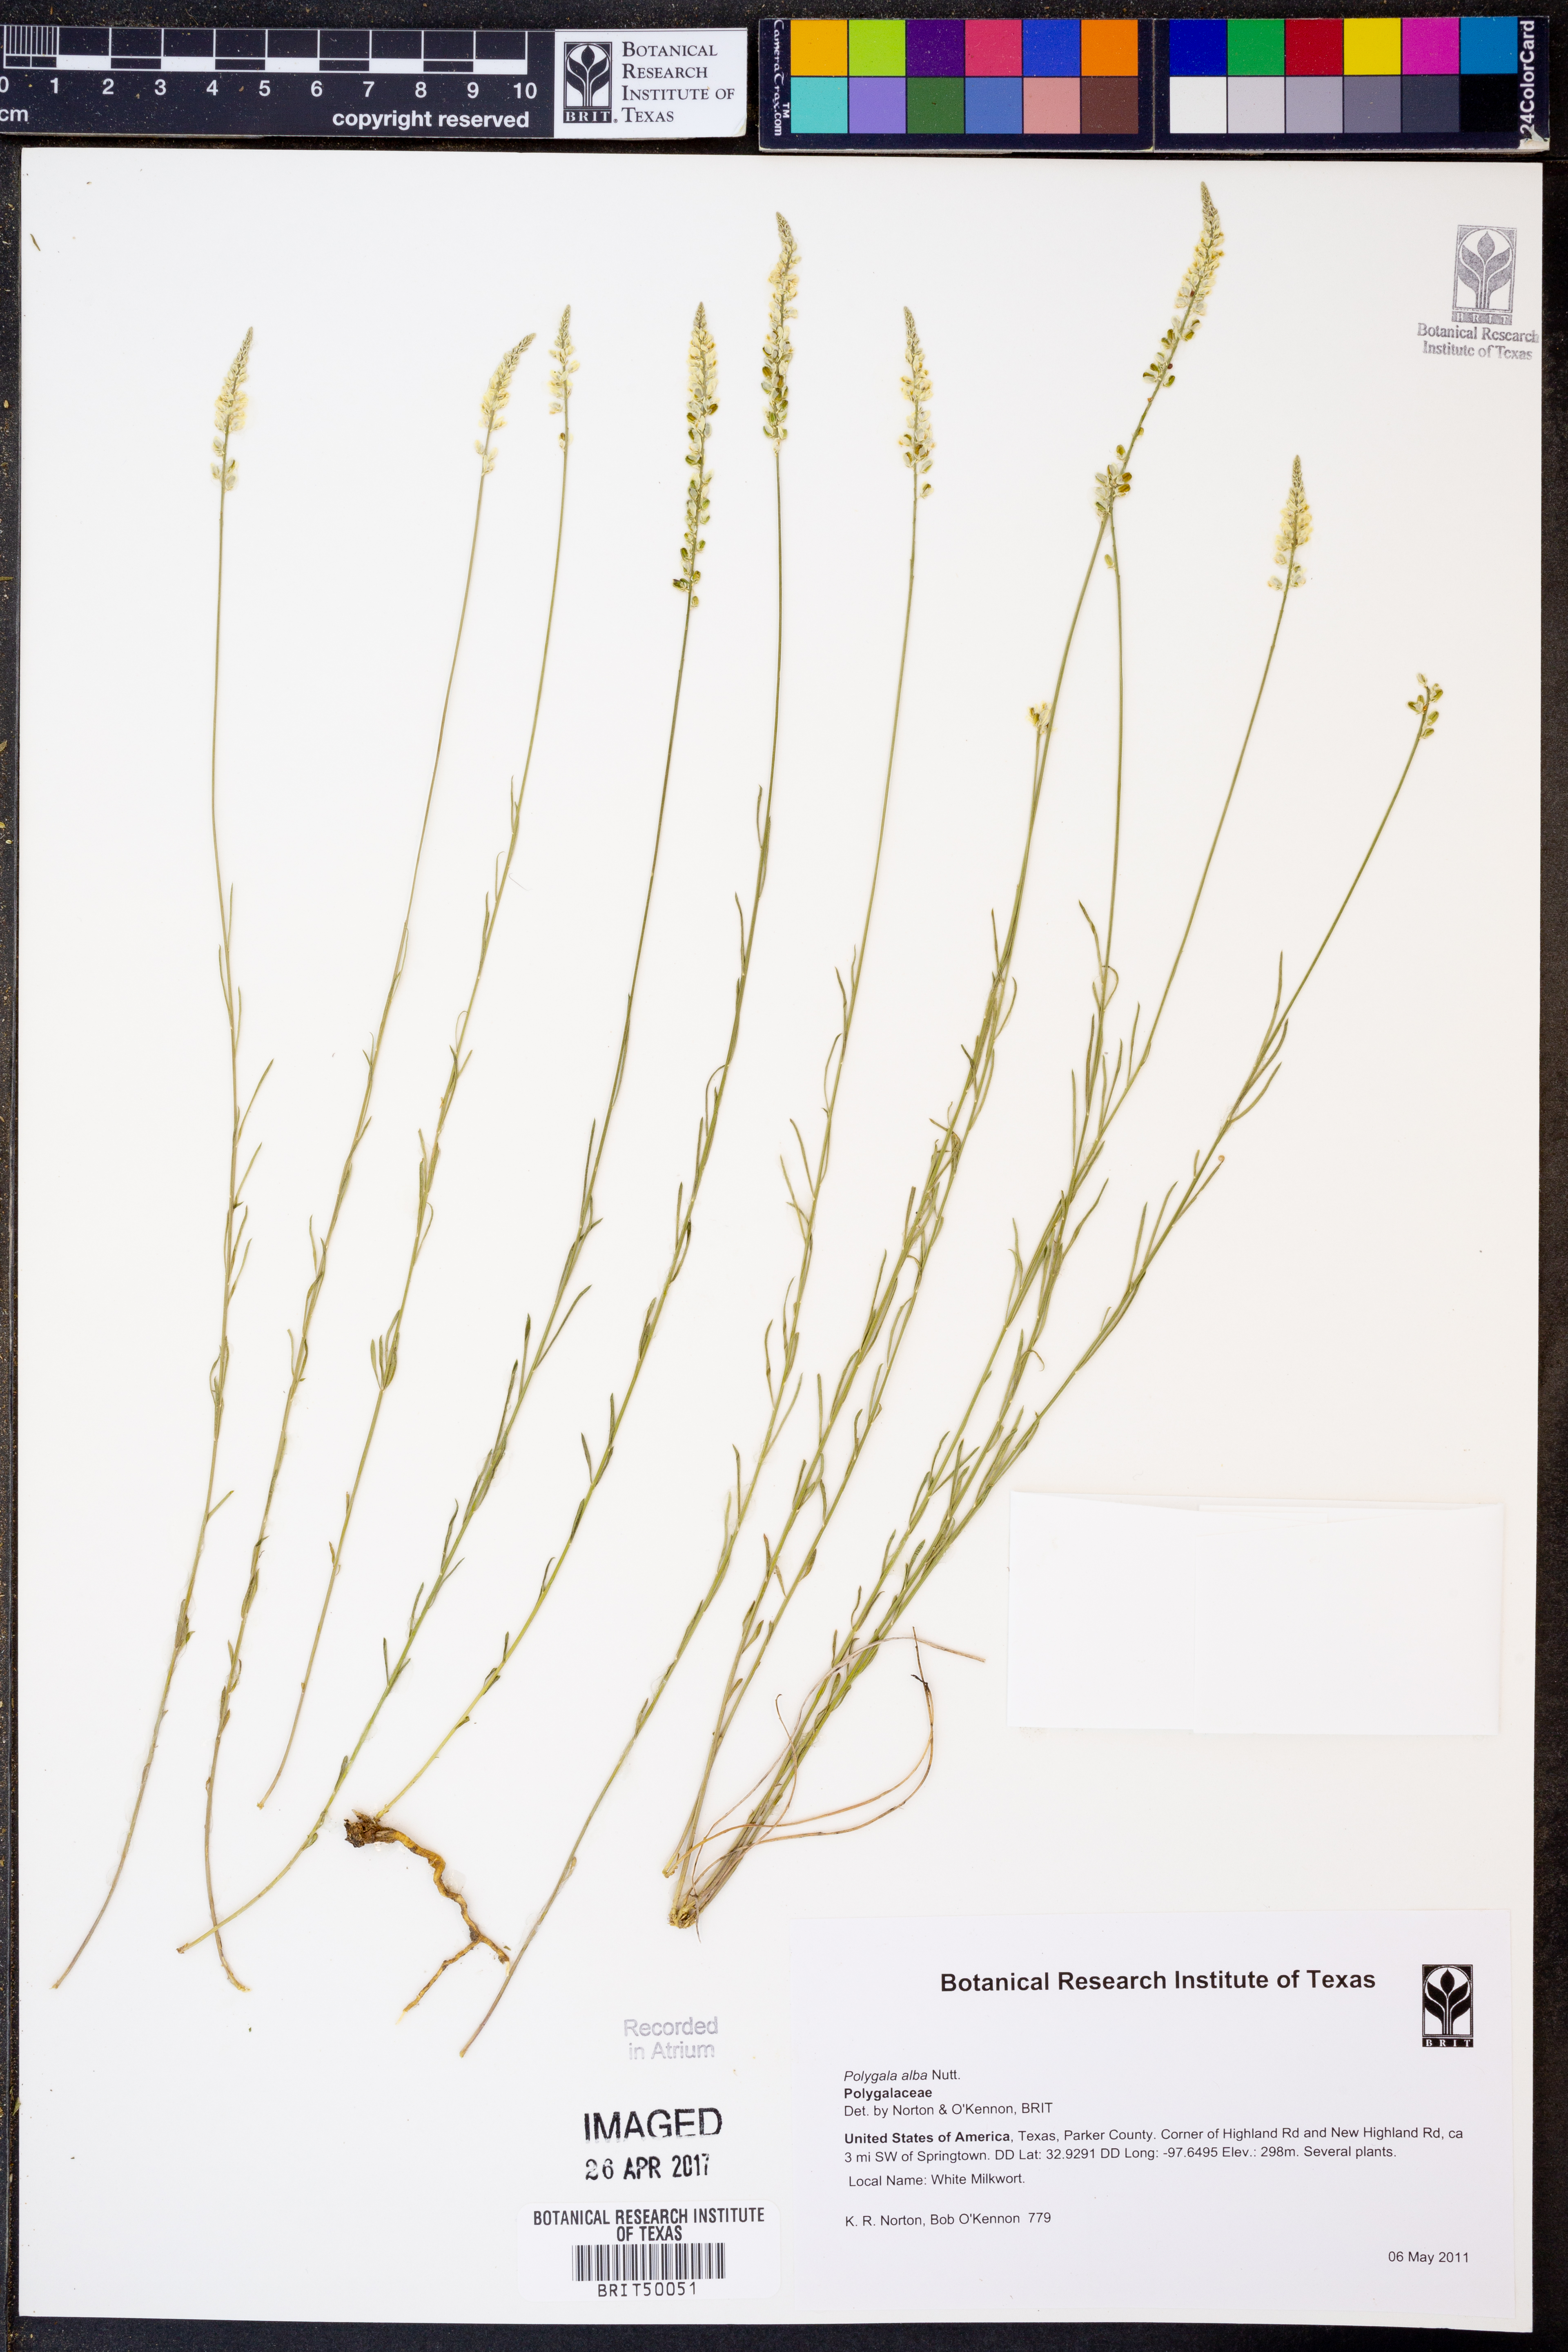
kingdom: Plantae
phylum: Tracheophyta
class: Magnoliopsida
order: Fabales
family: Polygalaceae
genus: Polygala
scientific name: Polygala alba
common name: White milkwort
